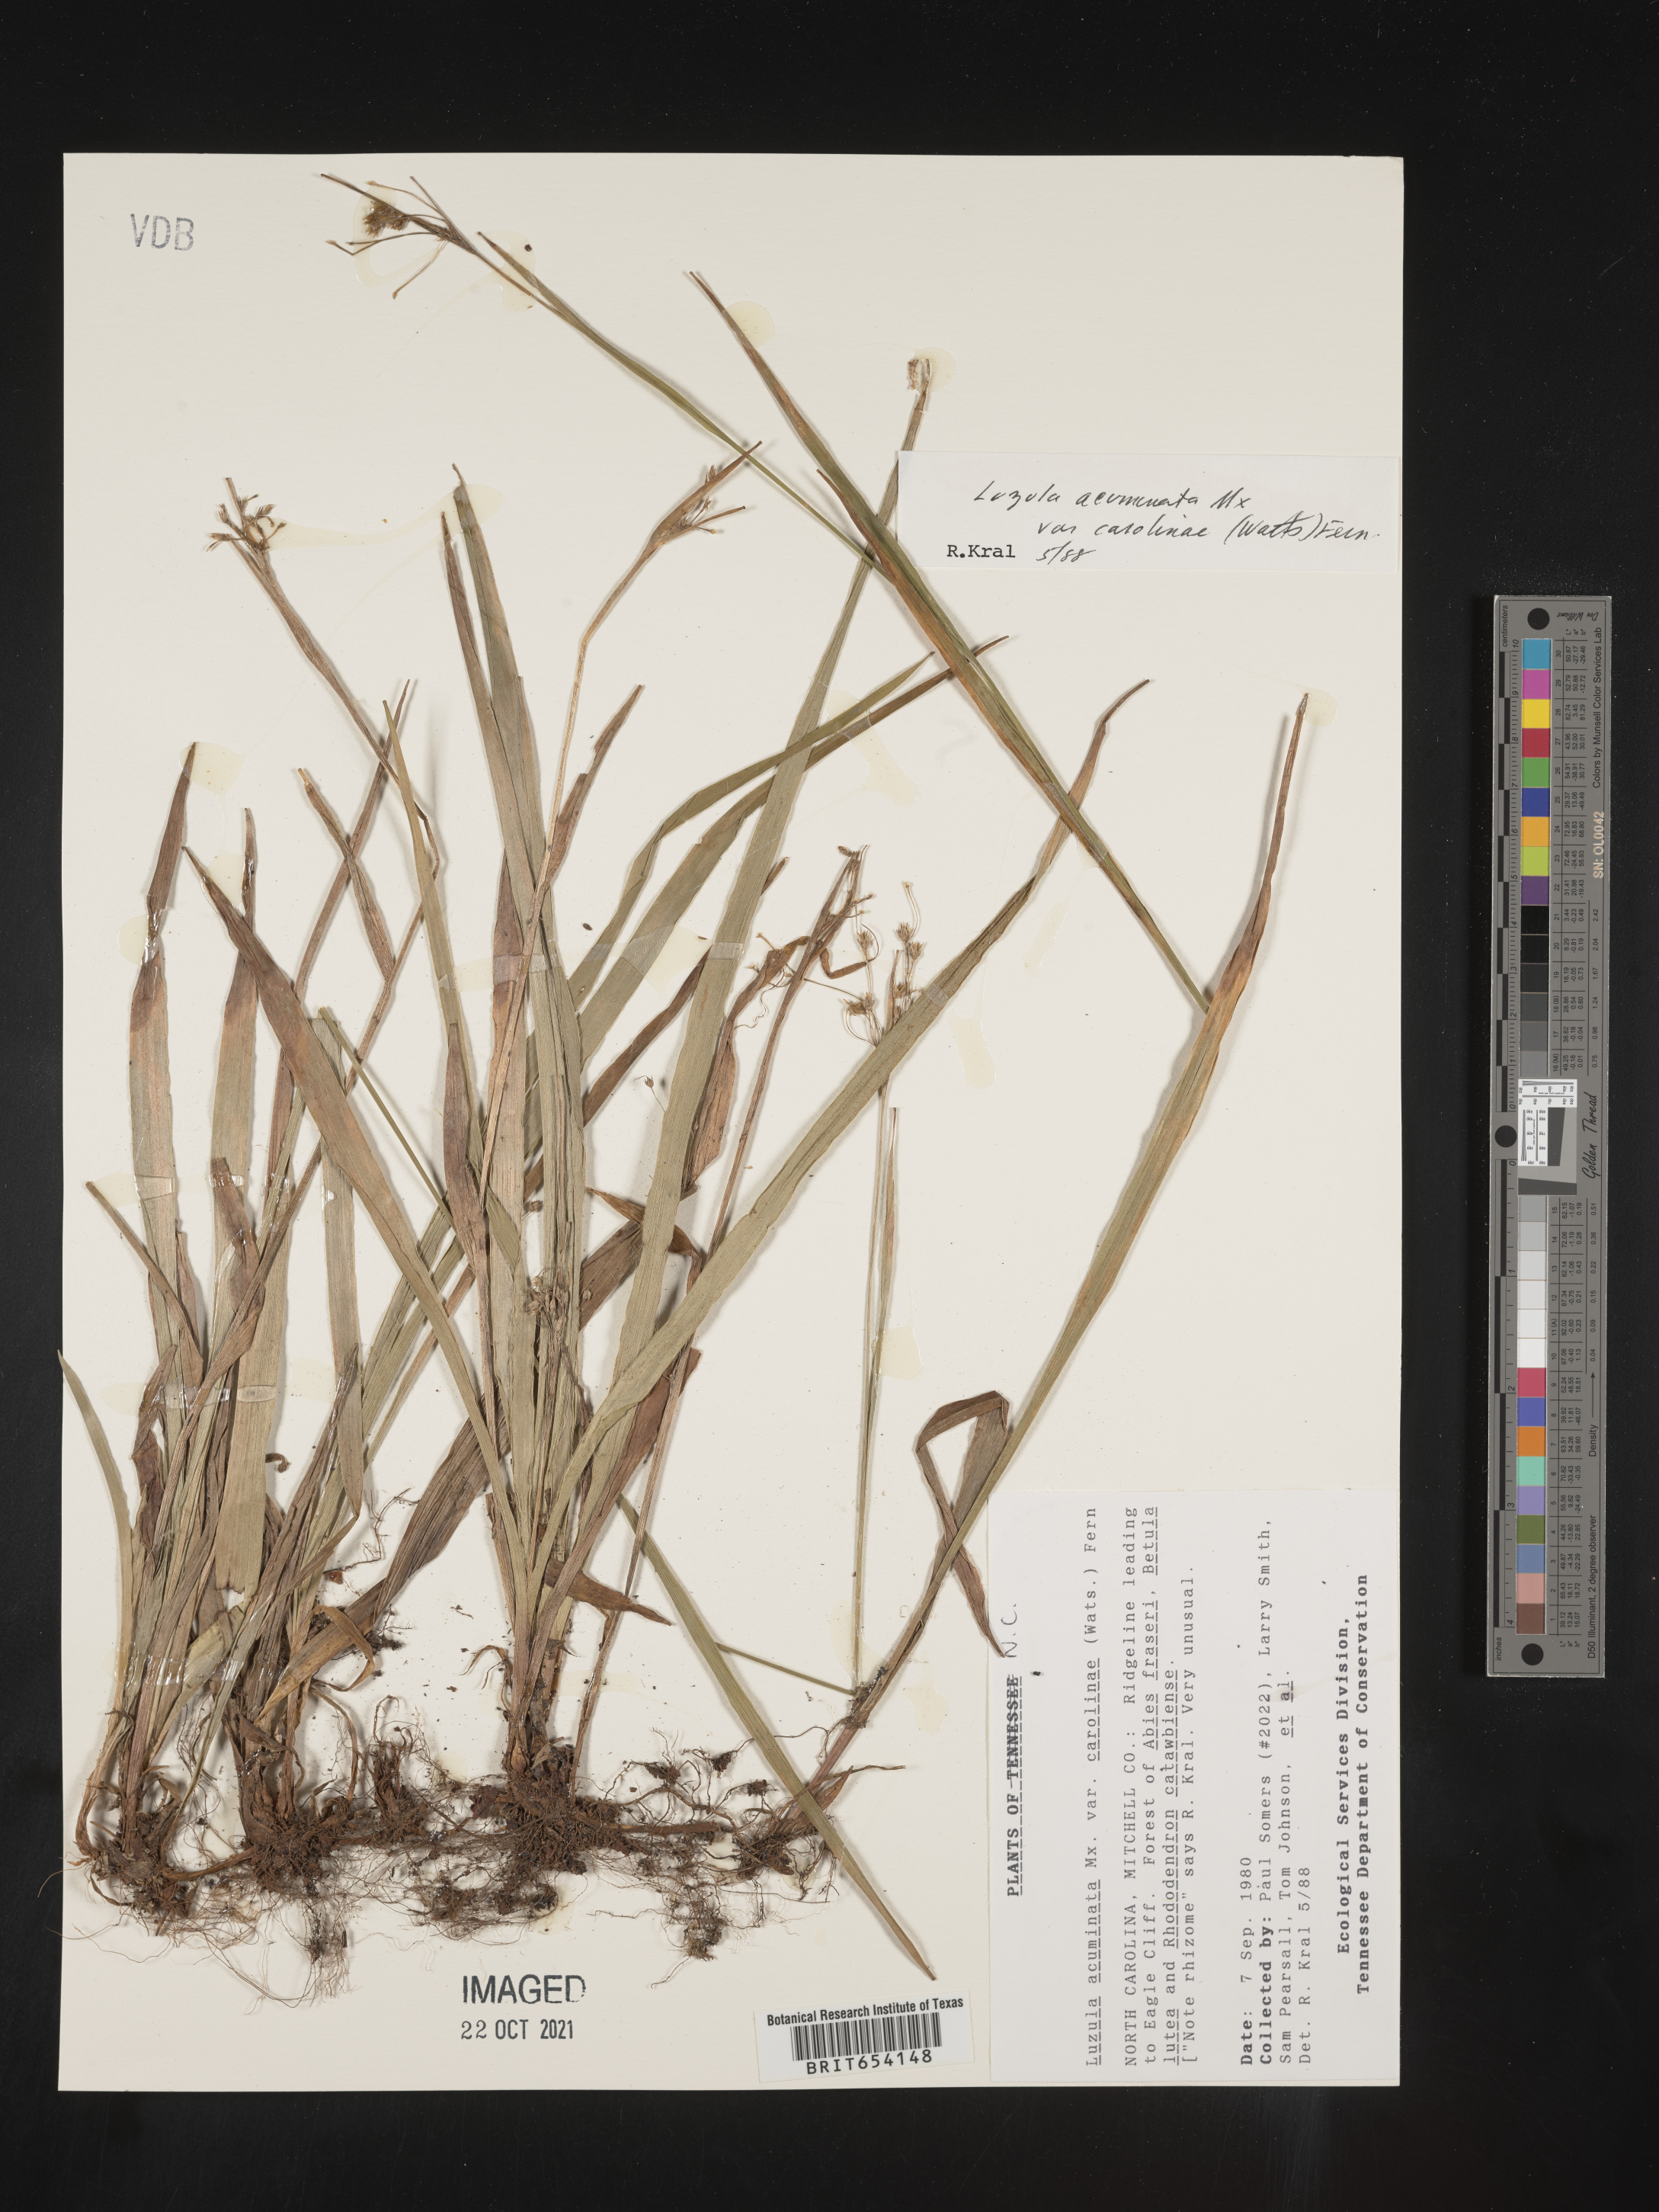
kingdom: Plantae
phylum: Tracheophyta
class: Liliopsida
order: Poales
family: Juncaceae
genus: Luzula
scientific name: Luzula acuminata
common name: Hairy woodrush
